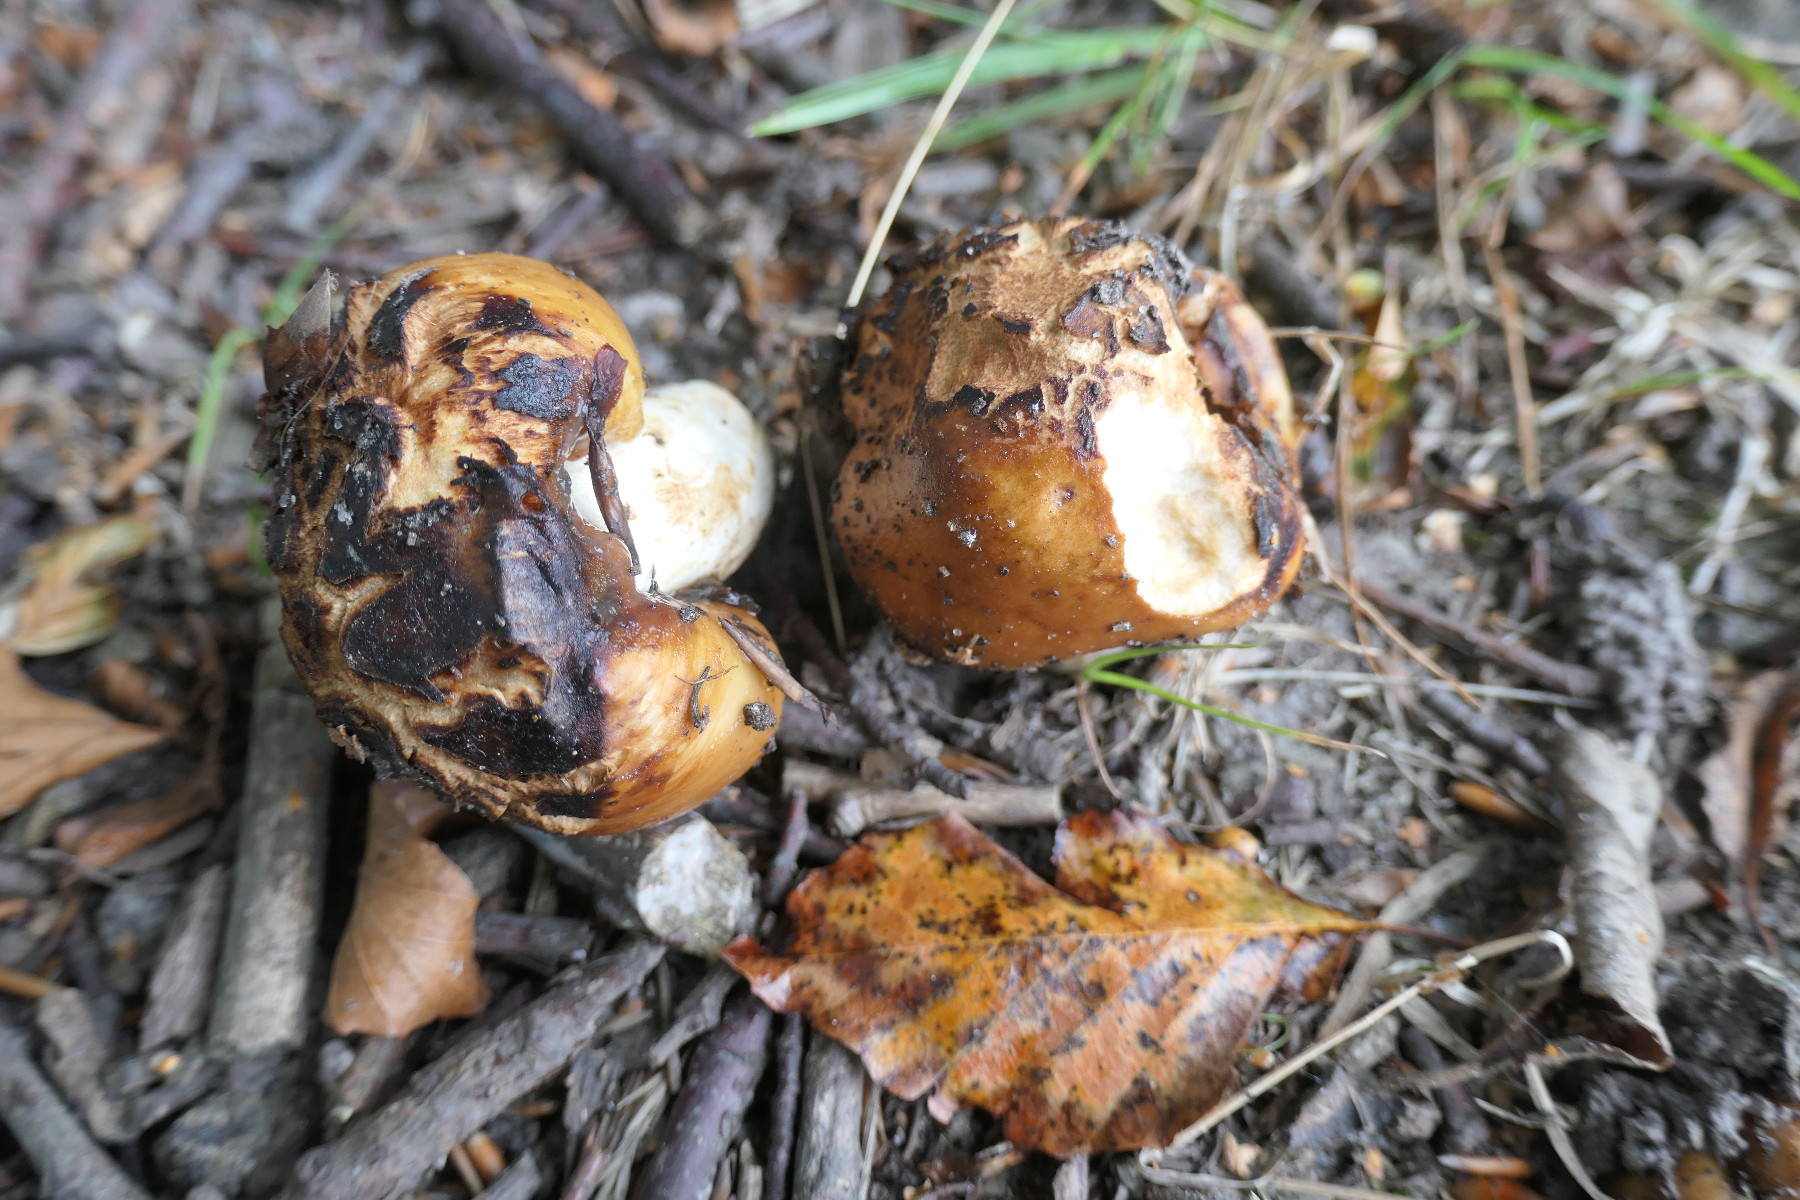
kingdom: Fungi
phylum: Basidiomycota
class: Agaricomycetes
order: Russulales
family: Russulaceae
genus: Russula
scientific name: Russula foetens
